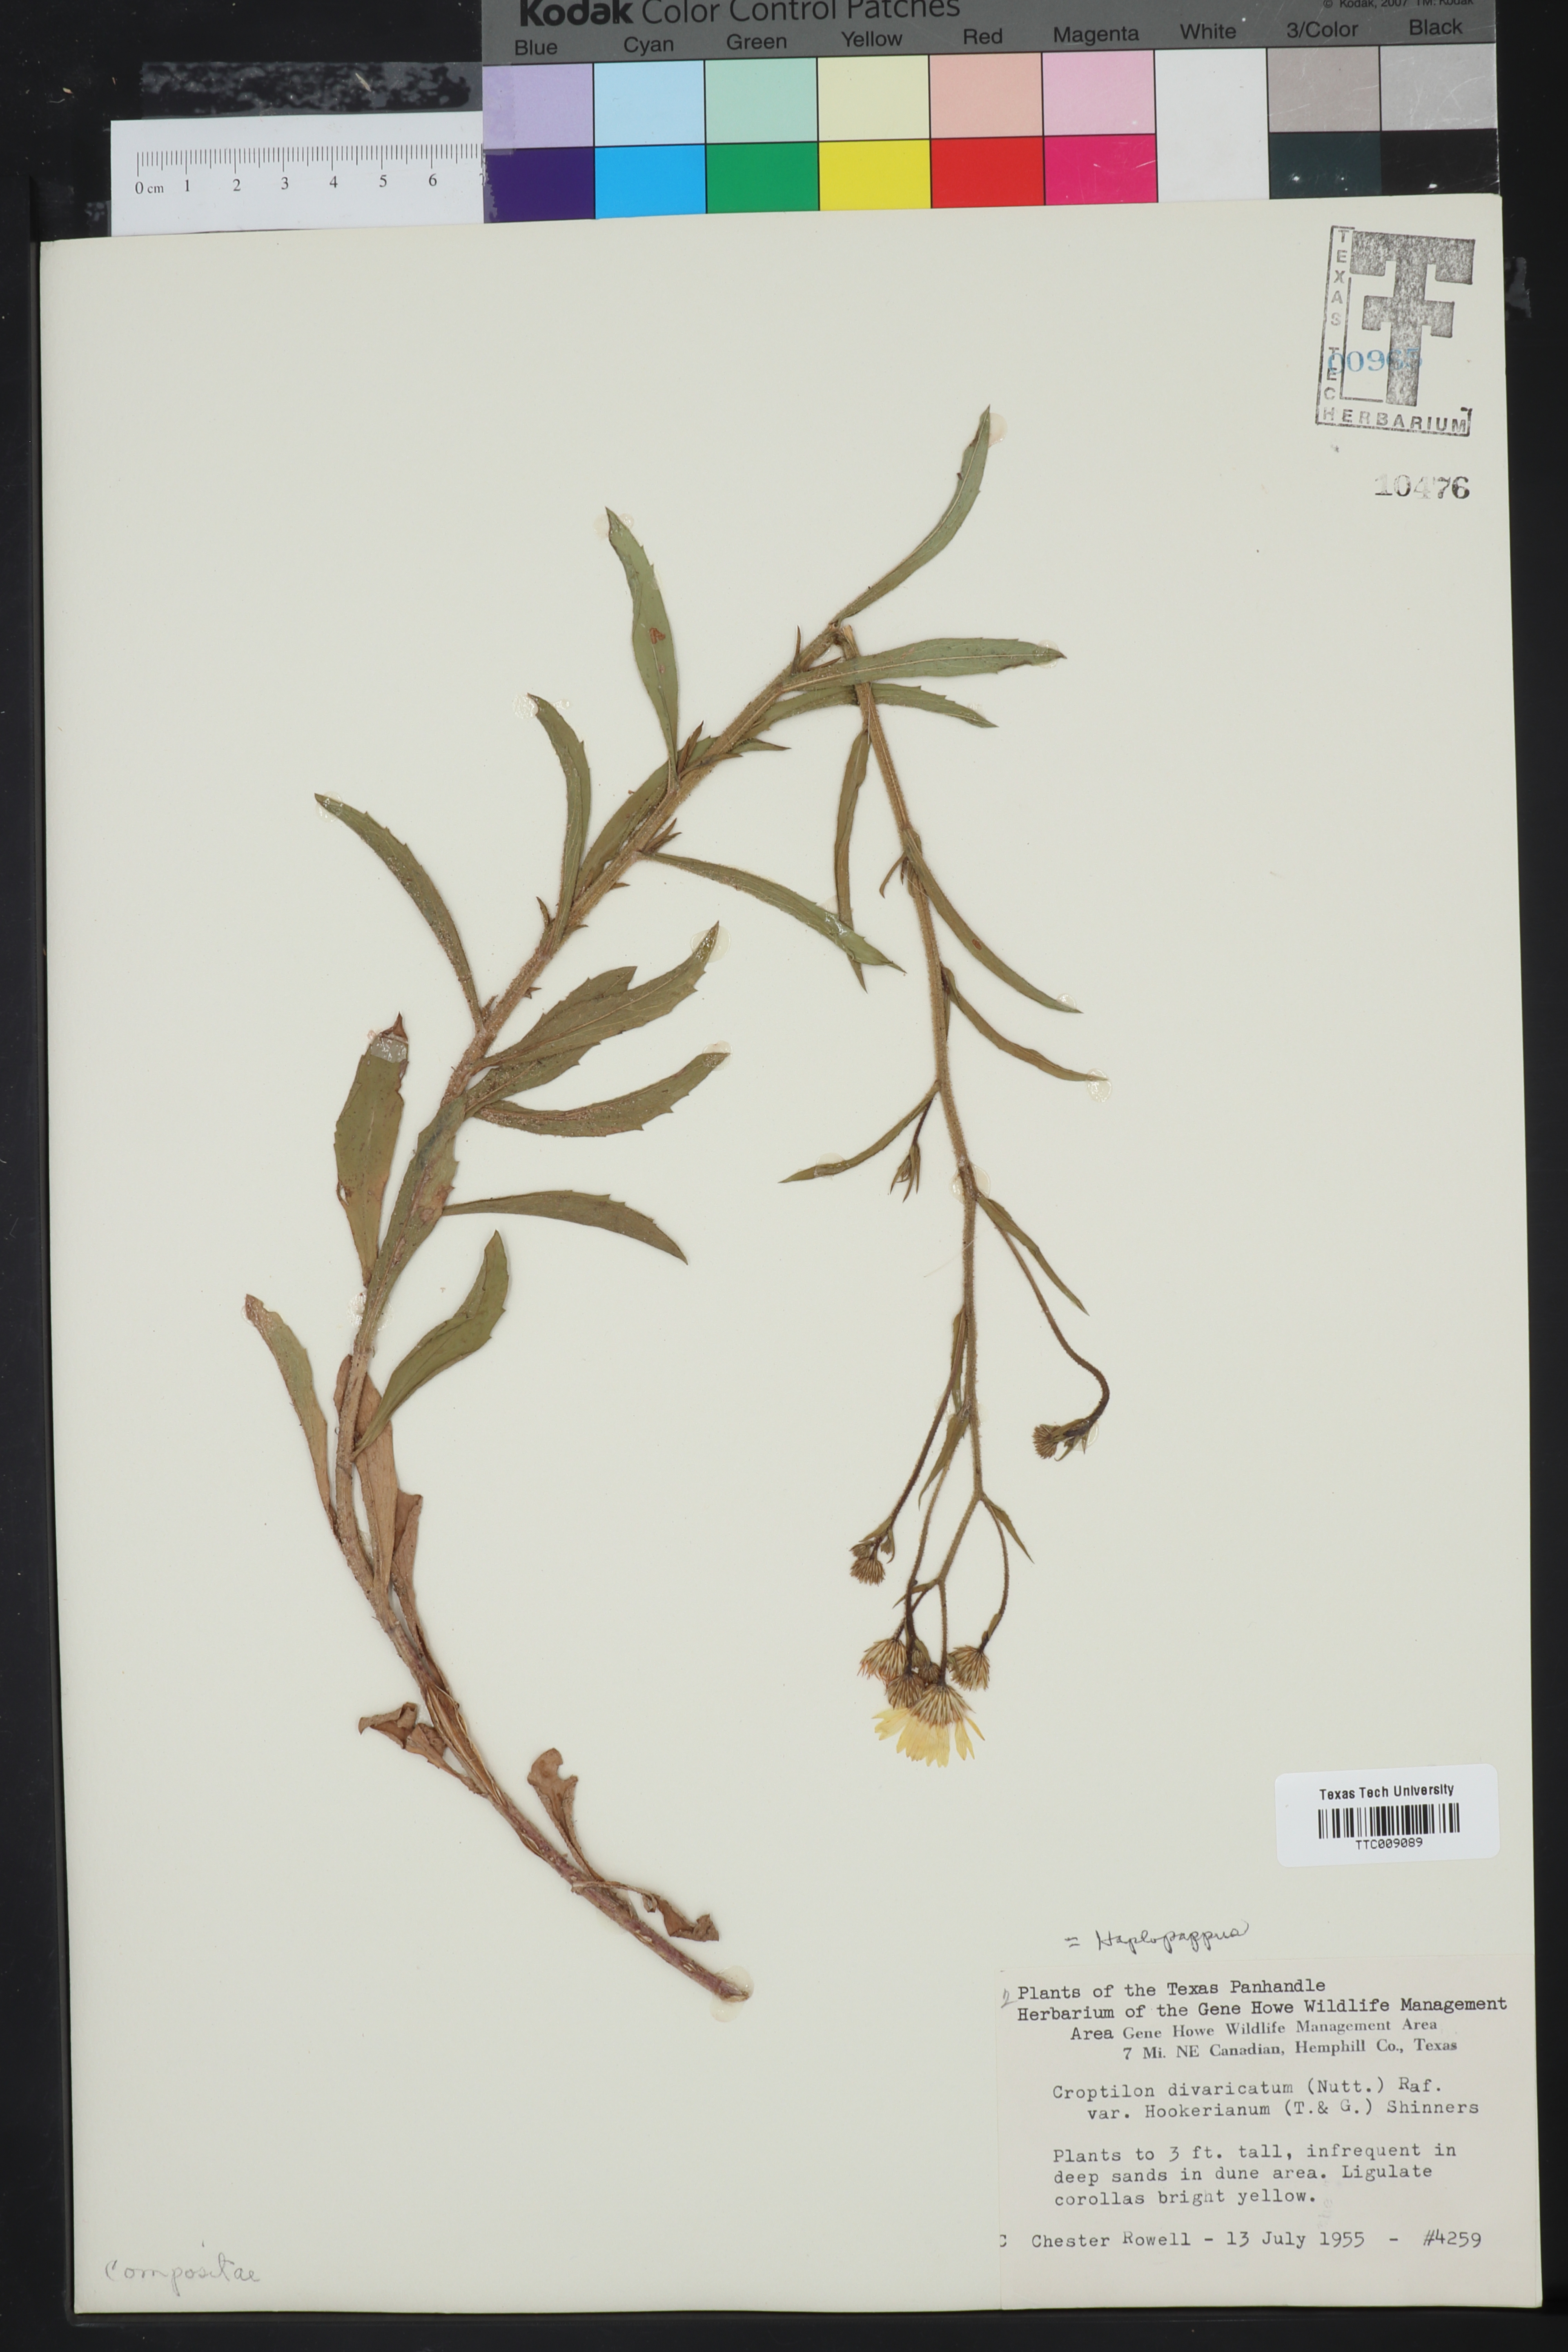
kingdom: Plantae
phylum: Tracheophyta
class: Magnoliopsida
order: Asterales
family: Asteraceae
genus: Haplopappus
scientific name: Haplopappus
